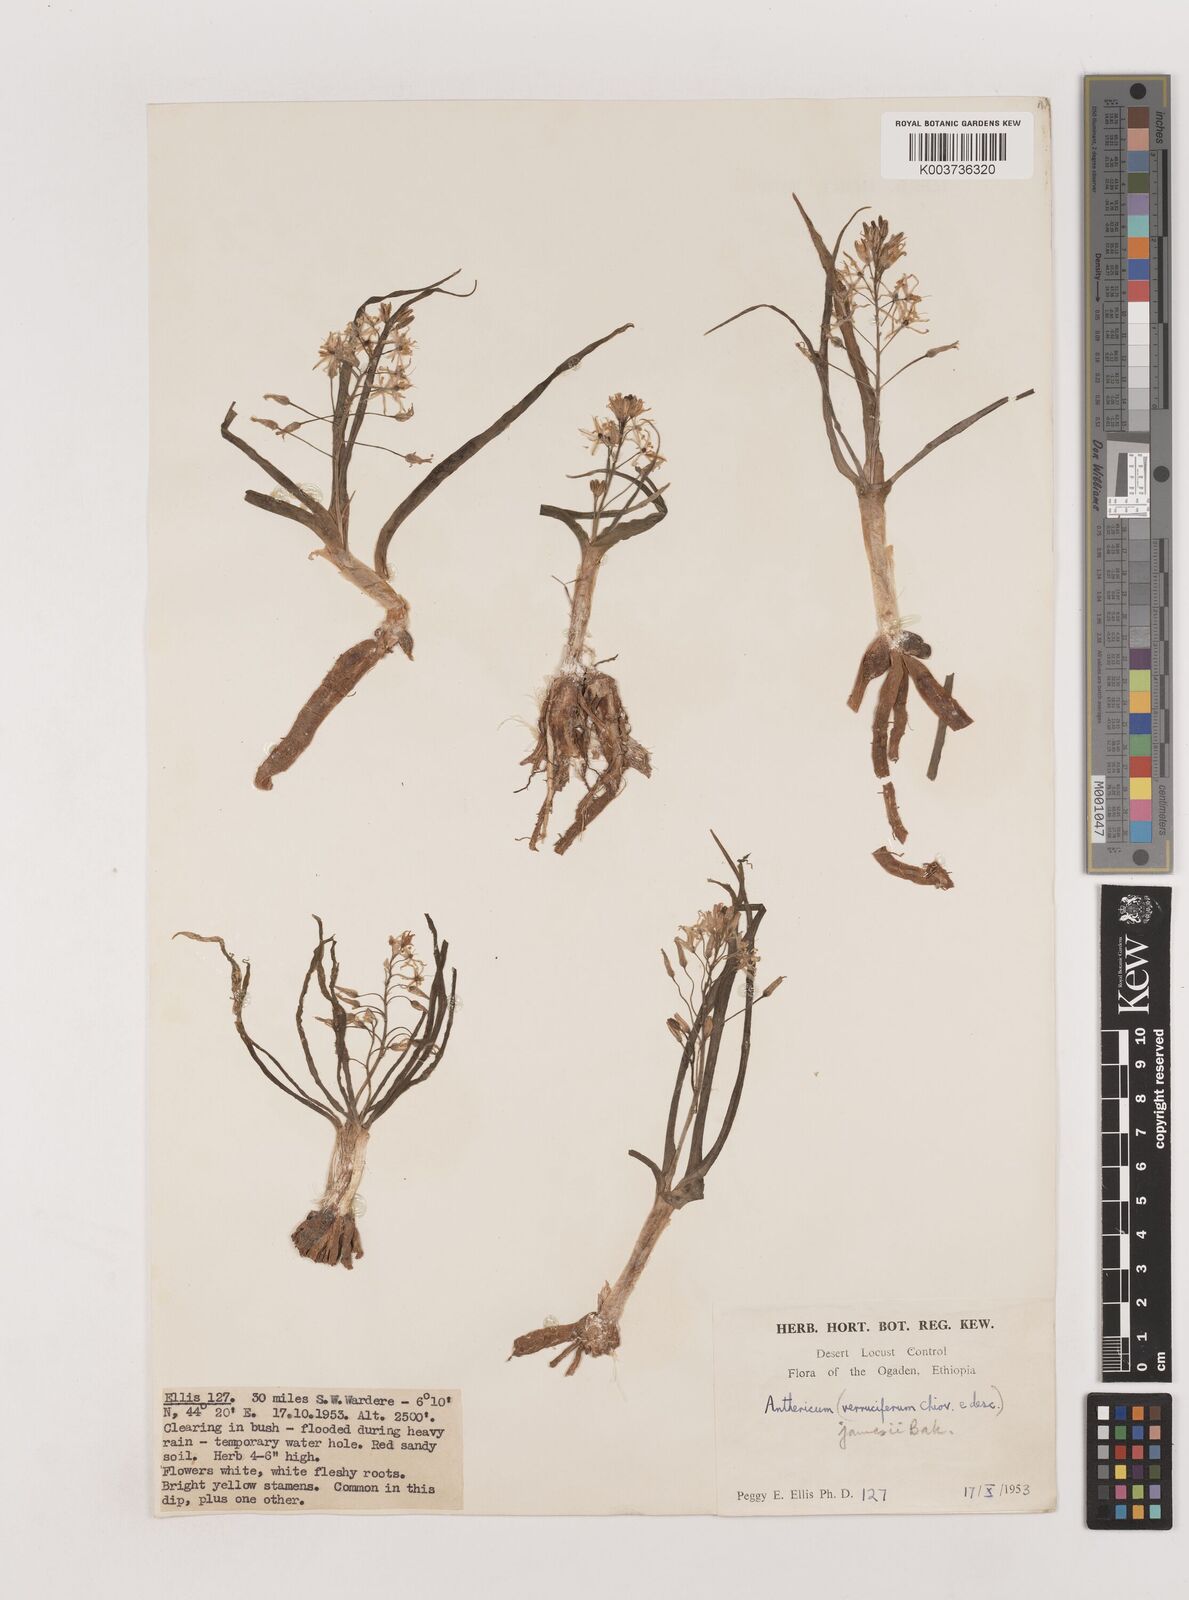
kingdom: Plantae
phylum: Tracheophyta
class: Liliopsida
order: Asparagales
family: Asparagaceae
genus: Anthericum
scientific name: Anthericum jamesii
